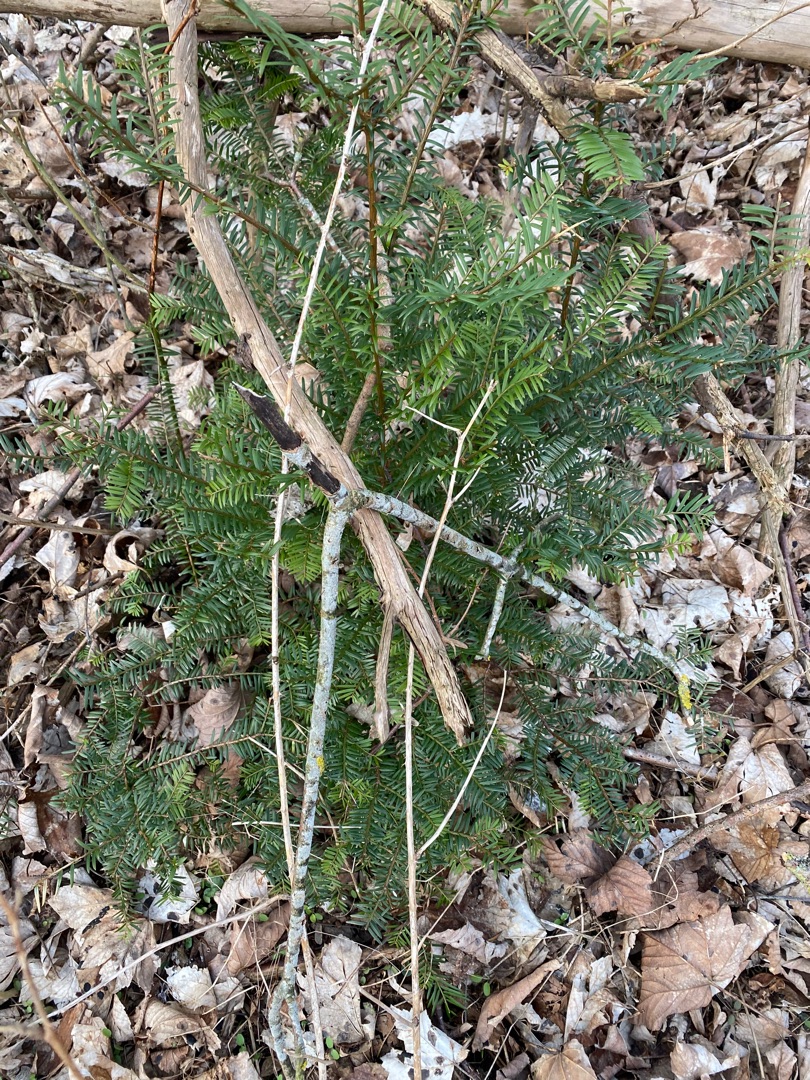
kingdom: Plantae
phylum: Tracheophyta
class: Pinopsida
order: Pinales
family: Taxaceae
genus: Taxus
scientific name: Taxus baccata
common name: Almindelig taks
